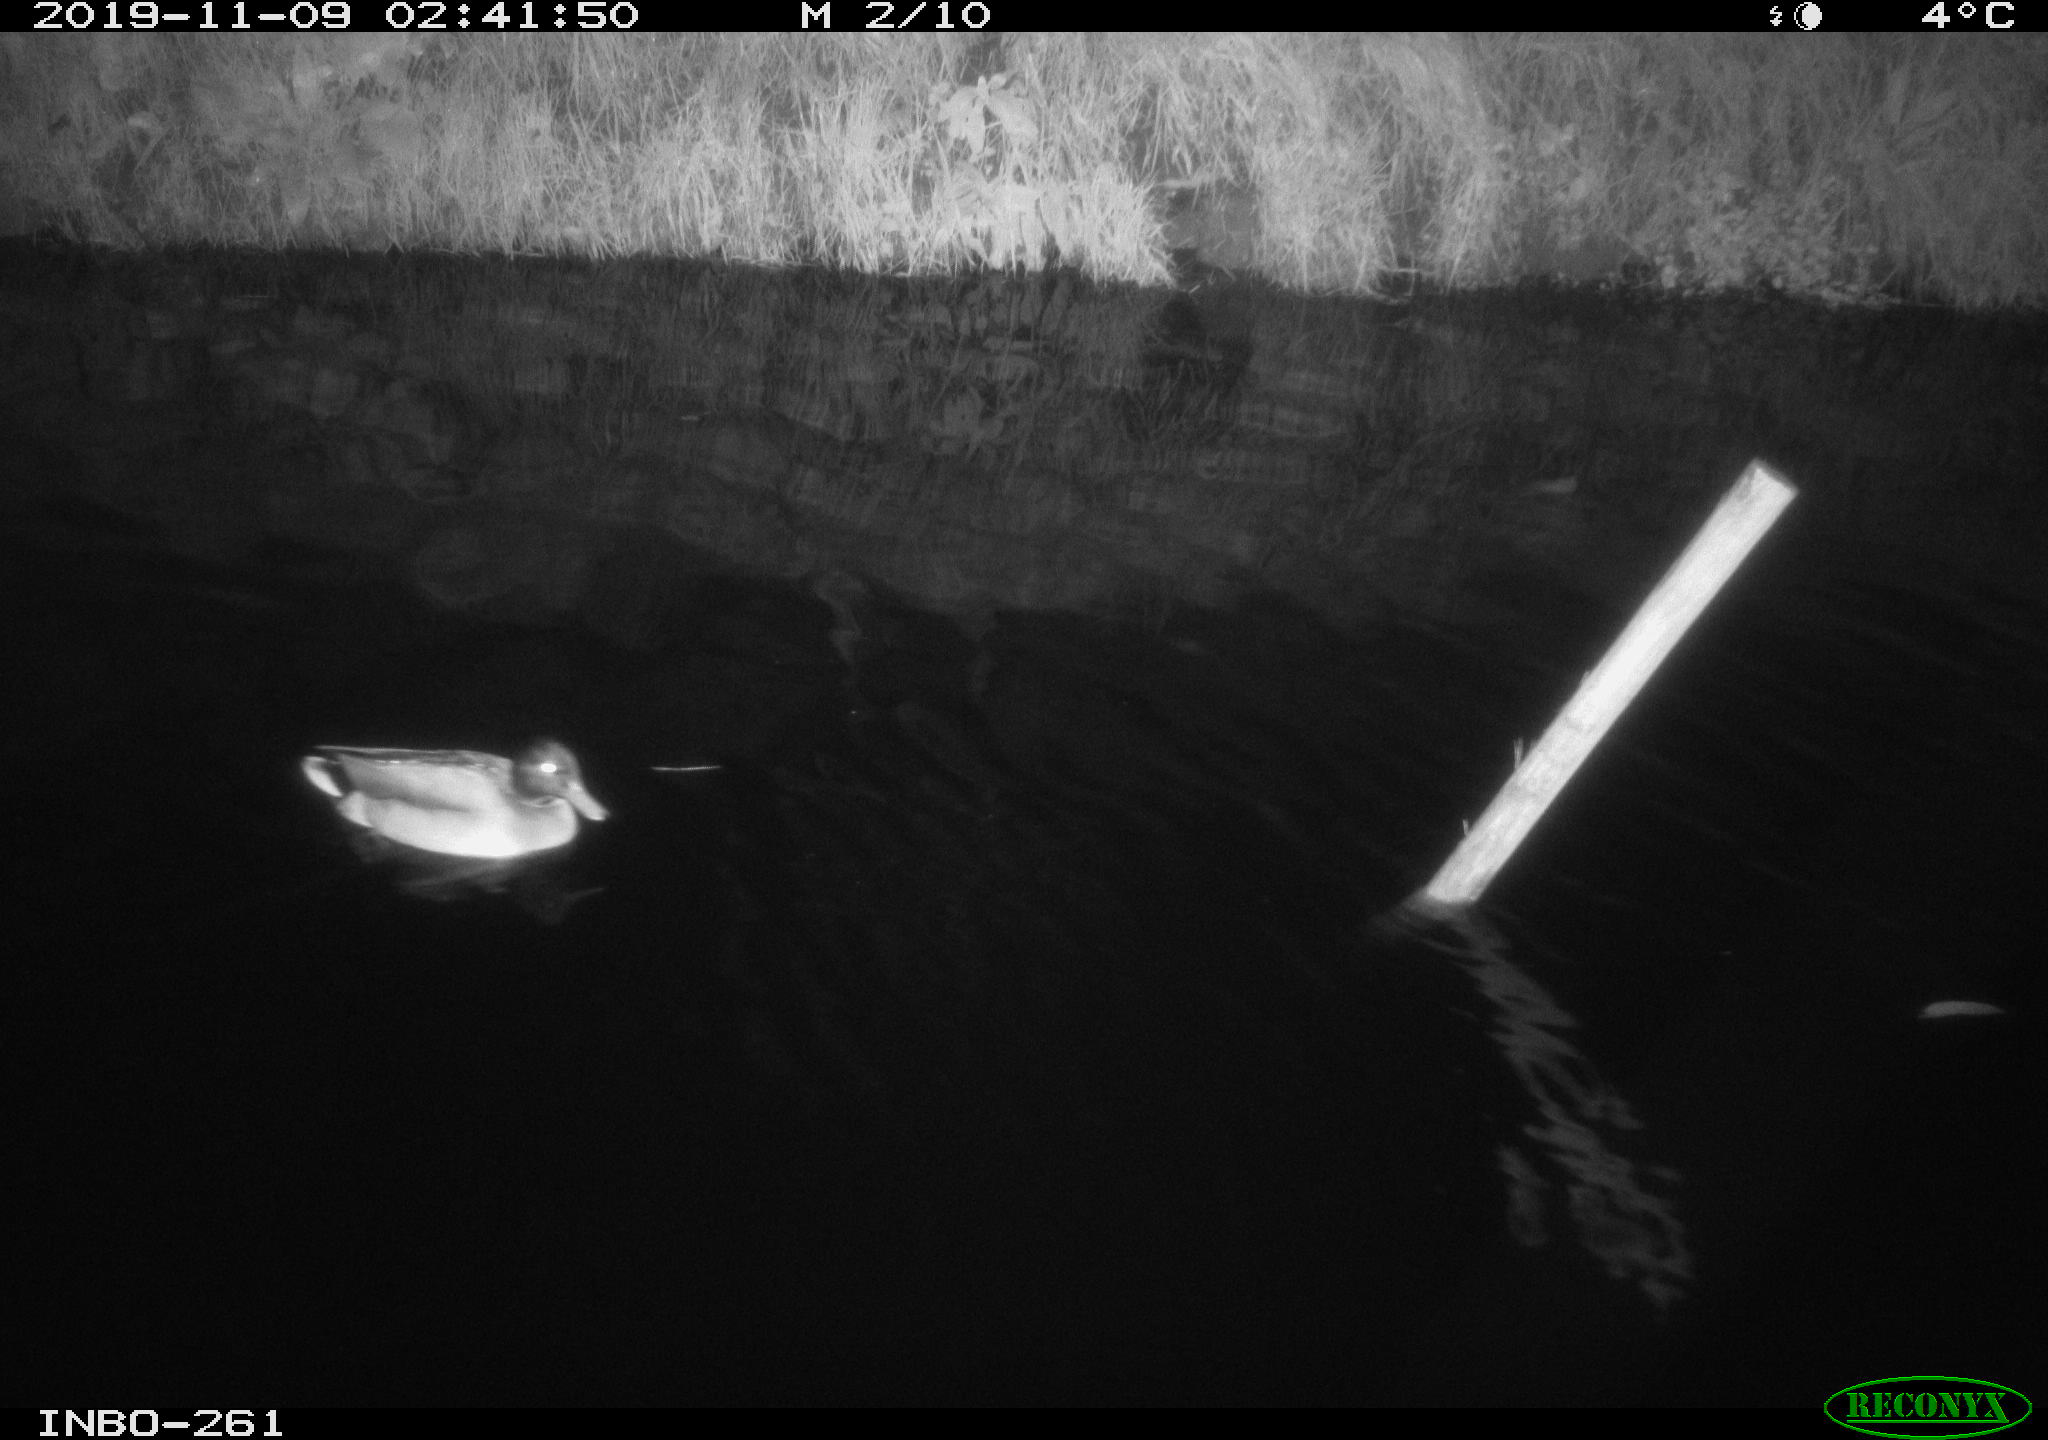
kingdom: Animalia
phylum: Chordata
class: Aves
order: Anseriformes
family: Anatidae
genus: Anas
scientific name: Anas platyrhynchos
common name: Mallard
